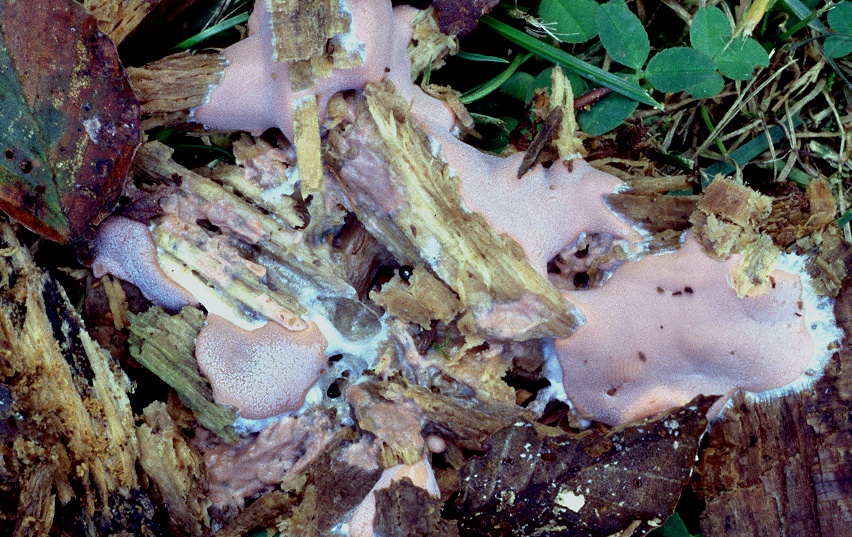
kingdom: Protozoa
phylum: Mycetozoa
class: Myxomycetes
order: Trichiales
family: Dictydiaethaliaceae
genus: Dictydiaethalium
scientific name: Dictydiaethalium plumbeum
